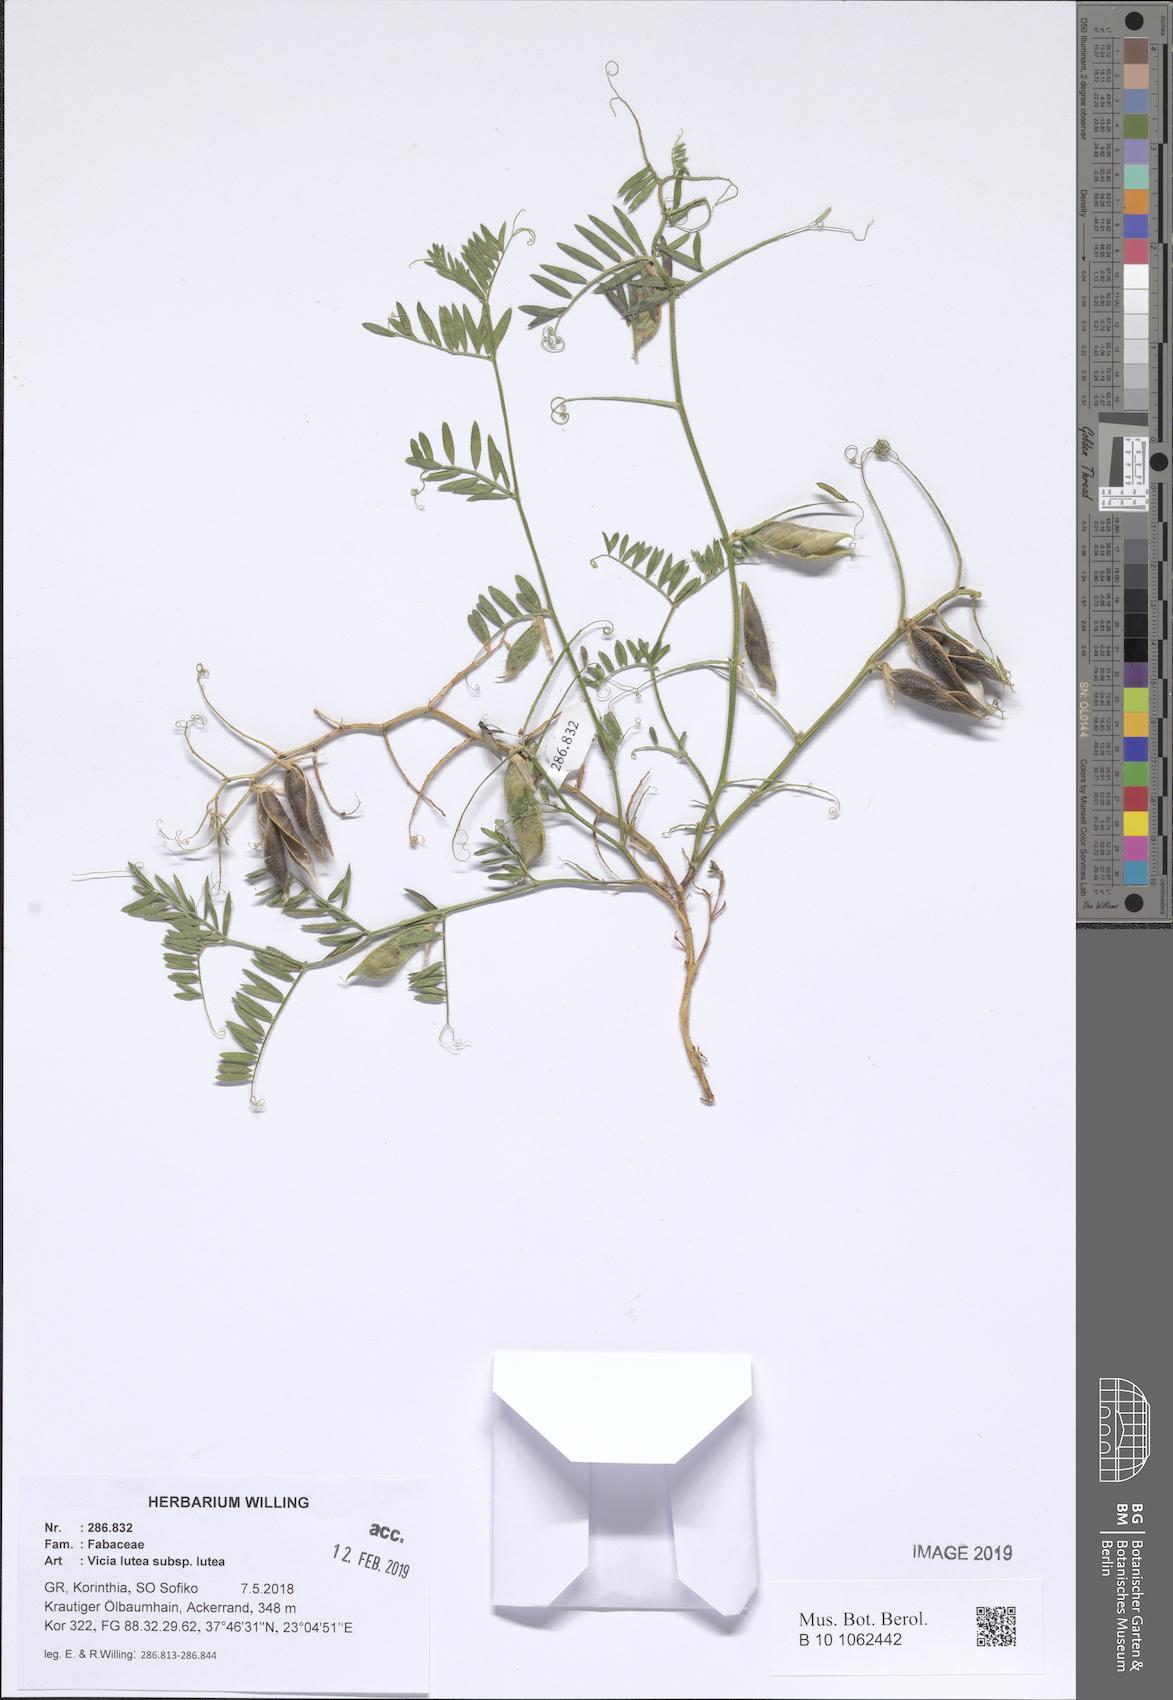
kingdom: Plantae
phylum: Tracheophyta
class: Magnoliopsida
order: Fabales
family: Fabaceae
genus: Vicia
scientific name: Vicia lutea
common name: Smooth yellow vetch
